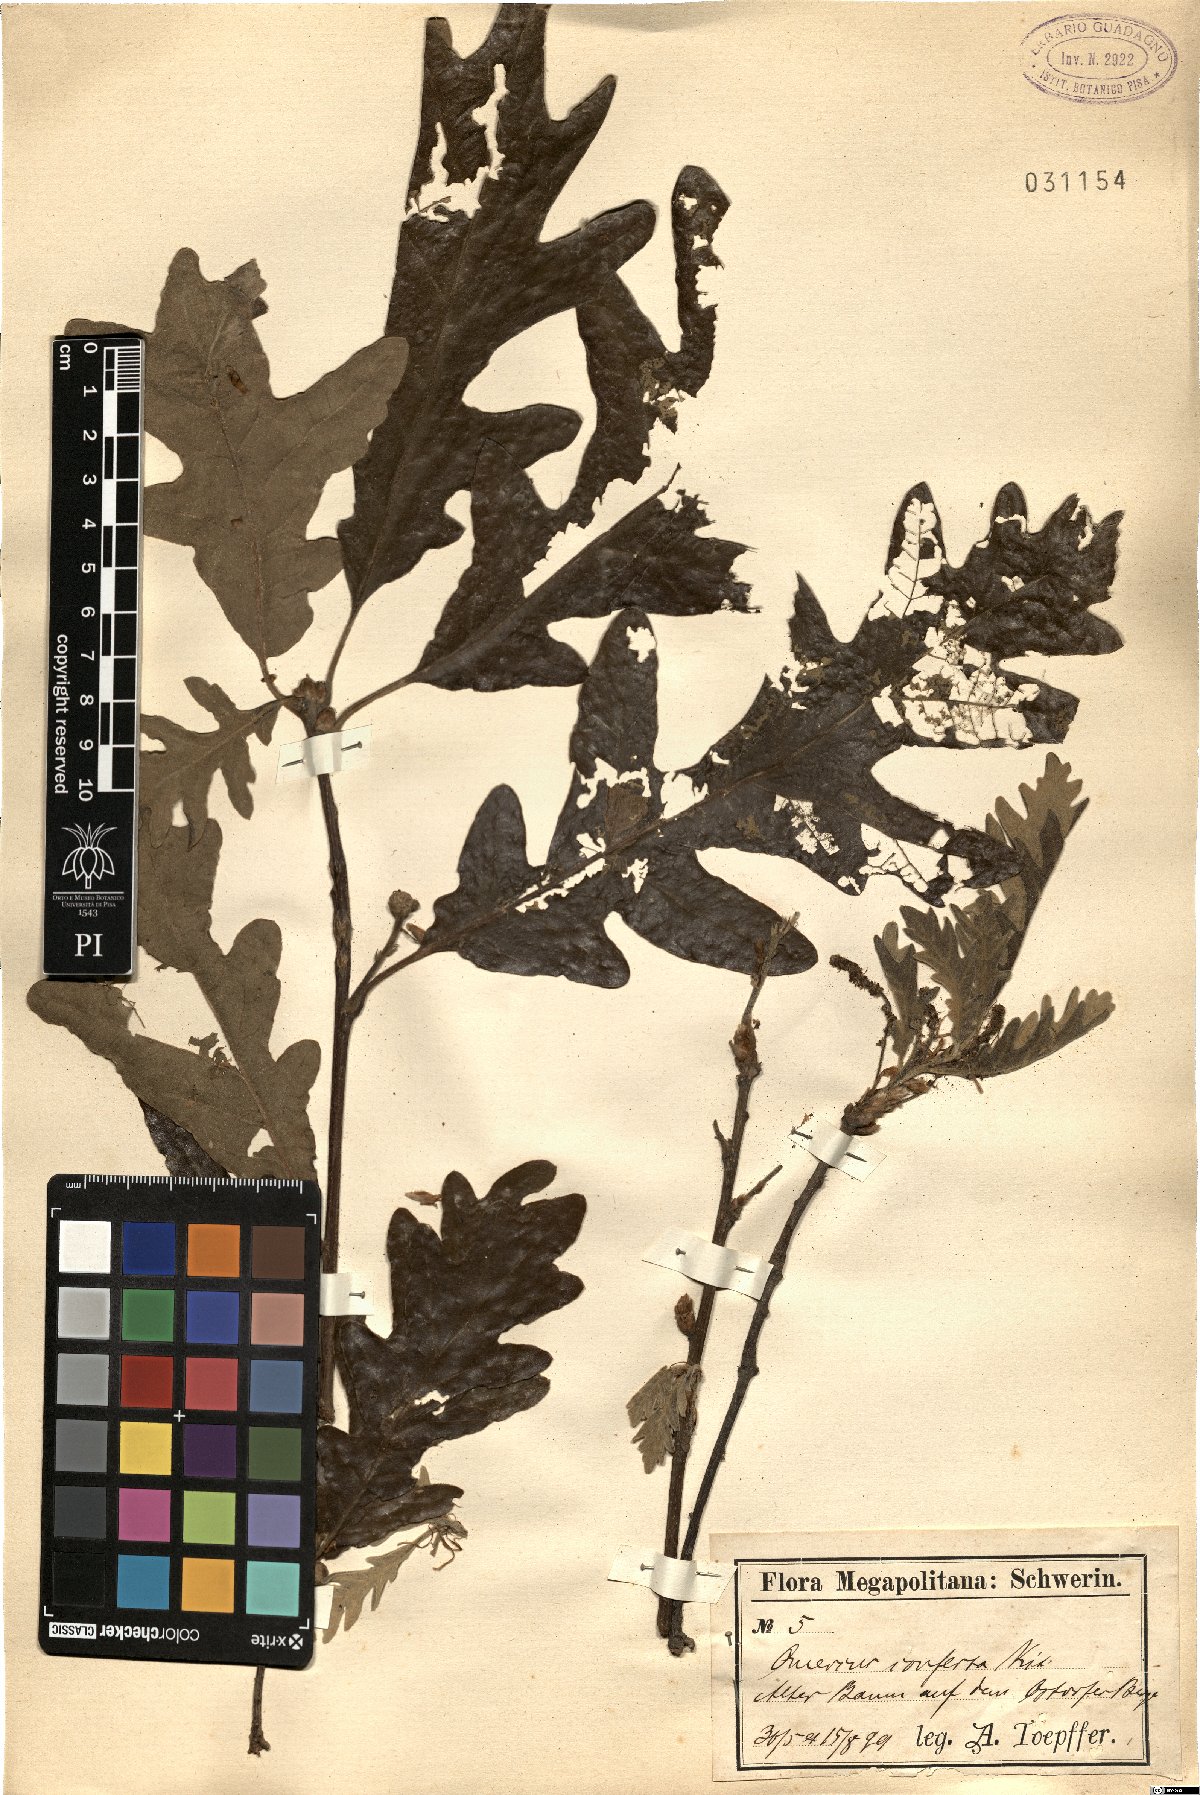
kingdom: Plantae
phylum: Tracheophyta
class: Magnoliopsida
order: Fagales
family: Fagaceae
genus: Quercus
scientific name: Quercus conferta
